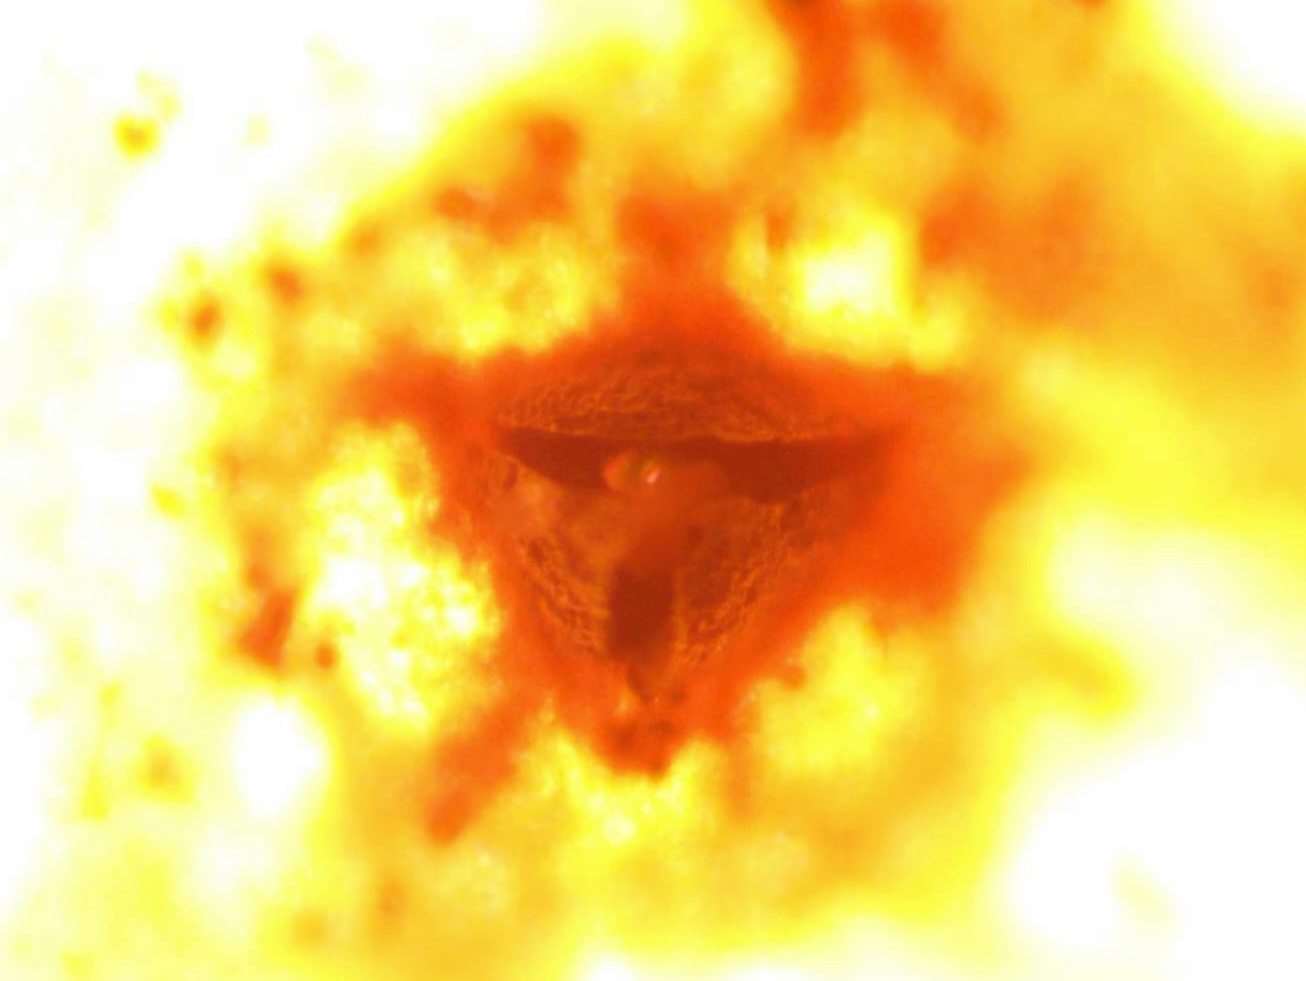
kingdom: Fungi
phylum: Ascomycota
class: Leotiomycetes
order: Helotiales
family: Cenangiaceae
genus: Trochila
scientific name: Trochila craterium
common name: vedbend-lågskive
